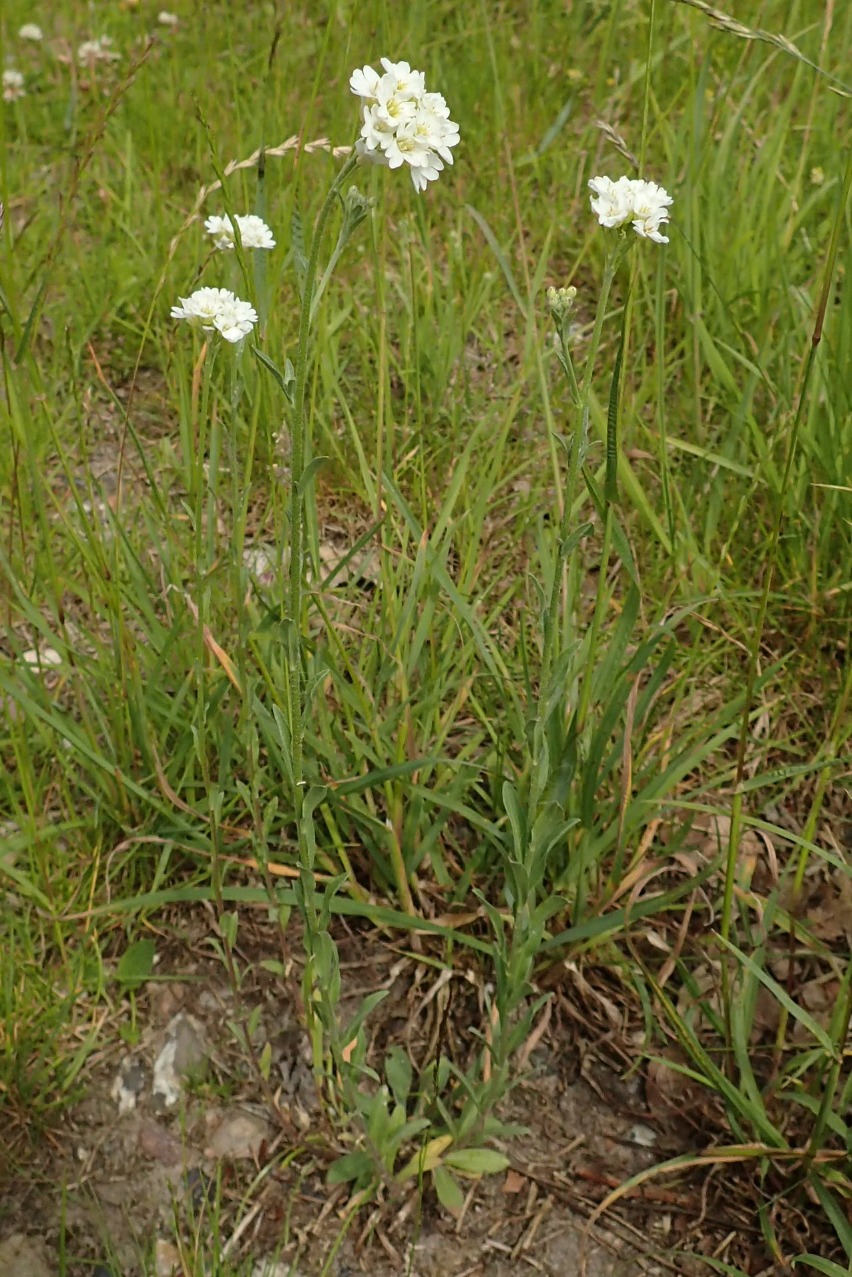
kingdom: Plantae
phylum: Tracheophyta
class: Magnoliopsida
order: Brassicales
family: Brassicaceae
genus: Berteroa
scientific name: Berteroa incana
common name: Kløvplade
